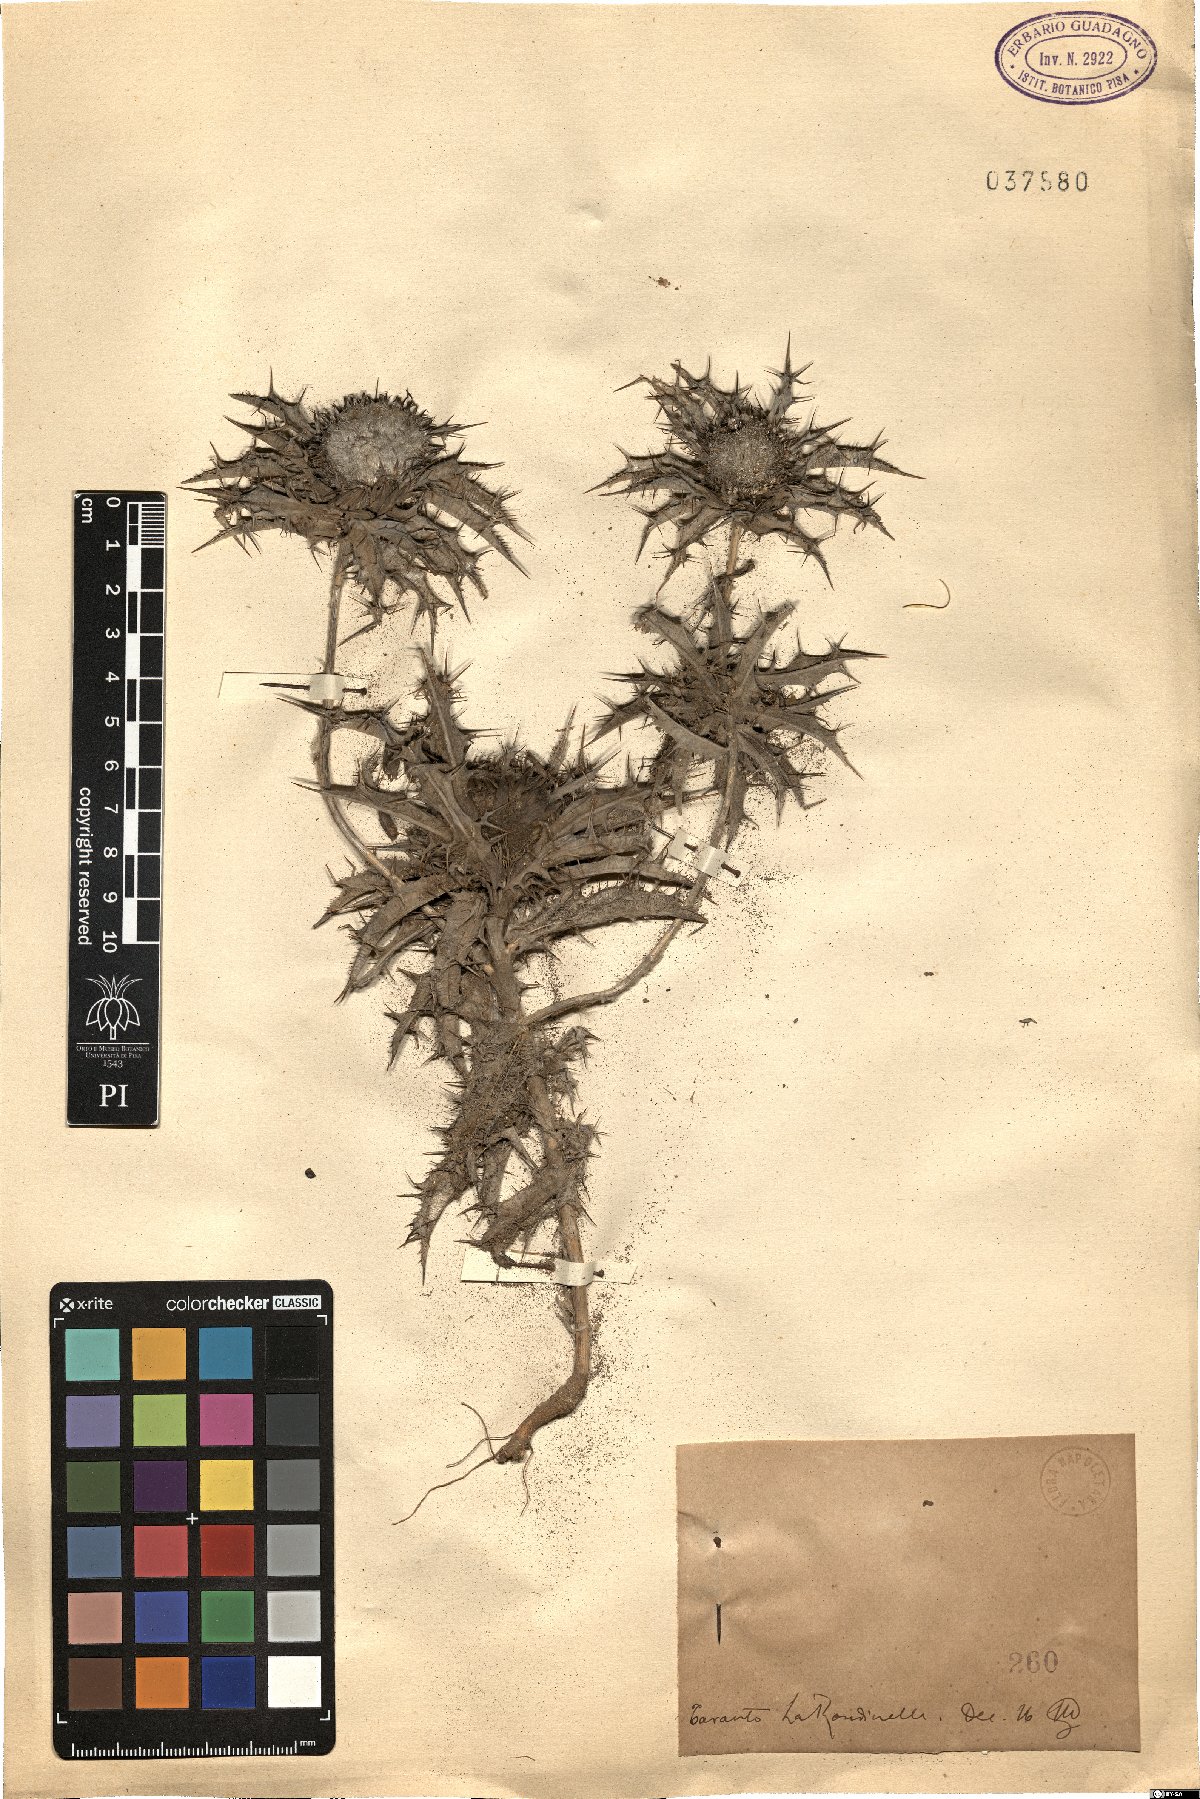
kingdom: Plantae
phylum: Tracheophyta
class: Magnoliopsida
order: Asterales
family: Asteraceae
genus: Carlina
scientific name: Carlina
